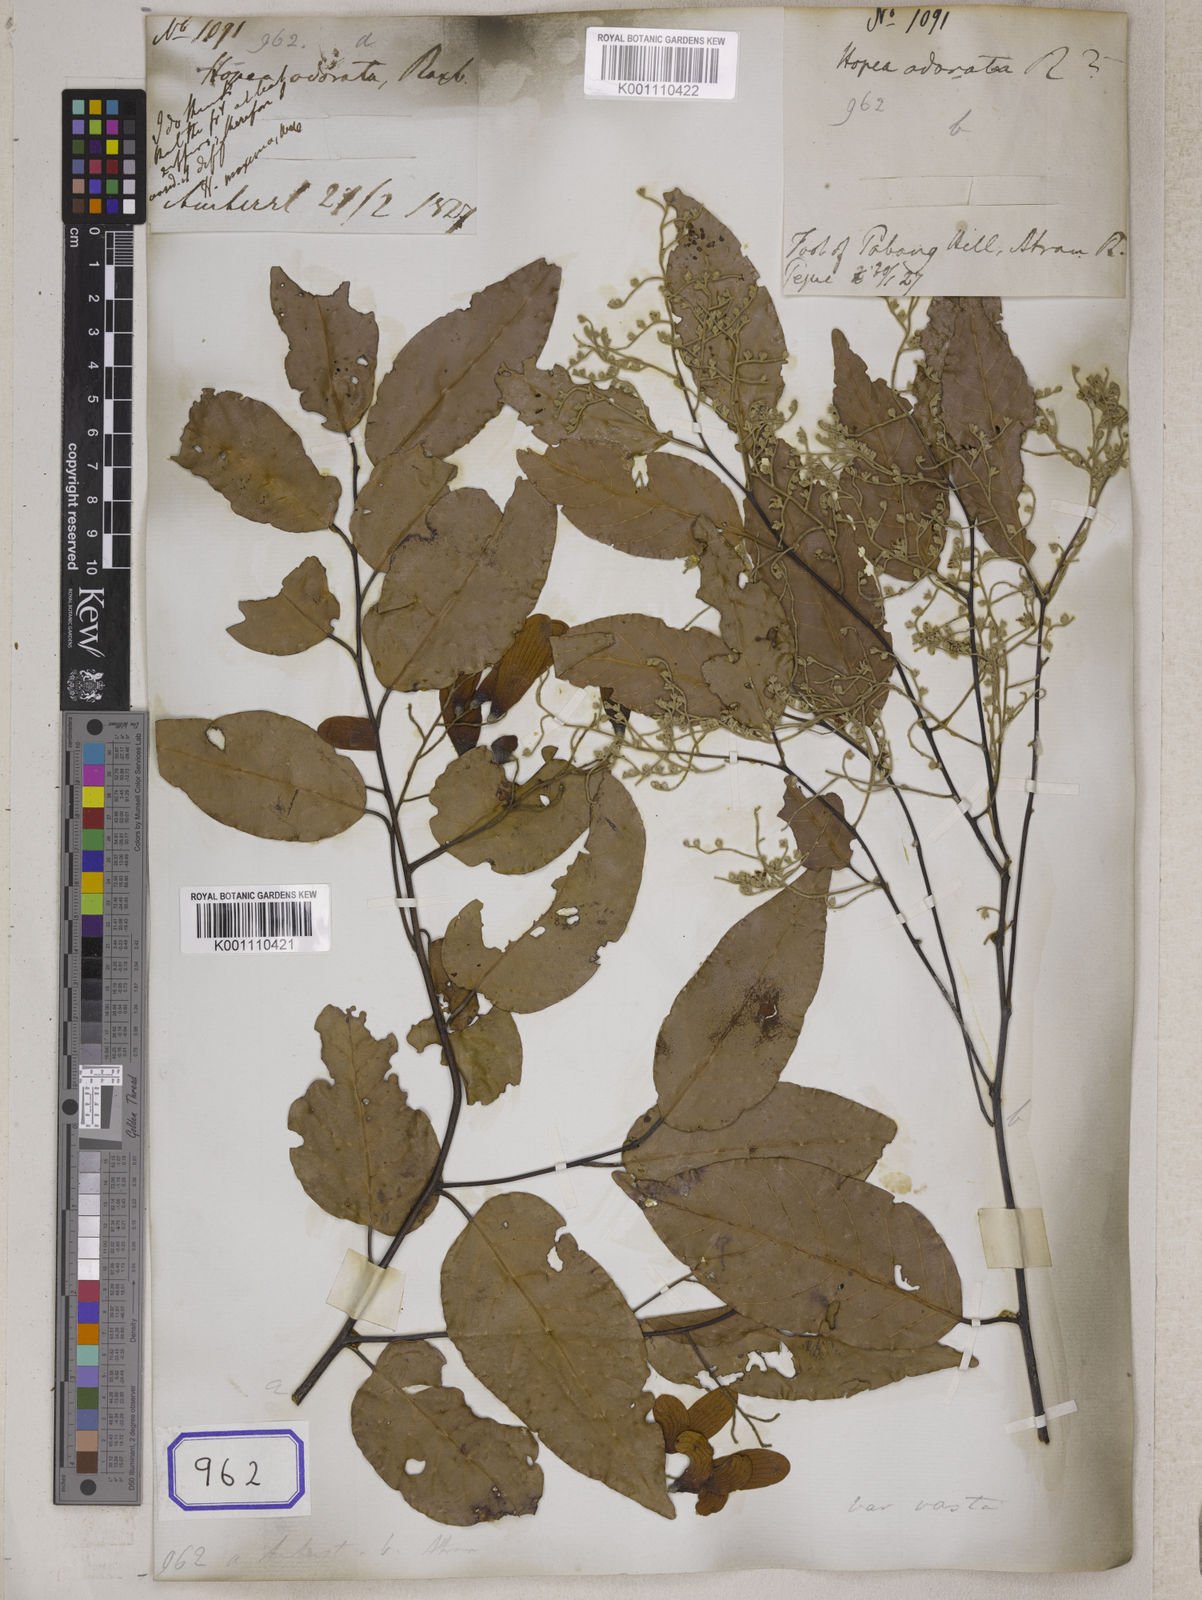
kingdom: Plantae
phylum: Tracheophyta
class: Magnoliopsida
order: Malvales
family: Dipterocarpaceae
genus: Hopea
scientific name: Hopea
